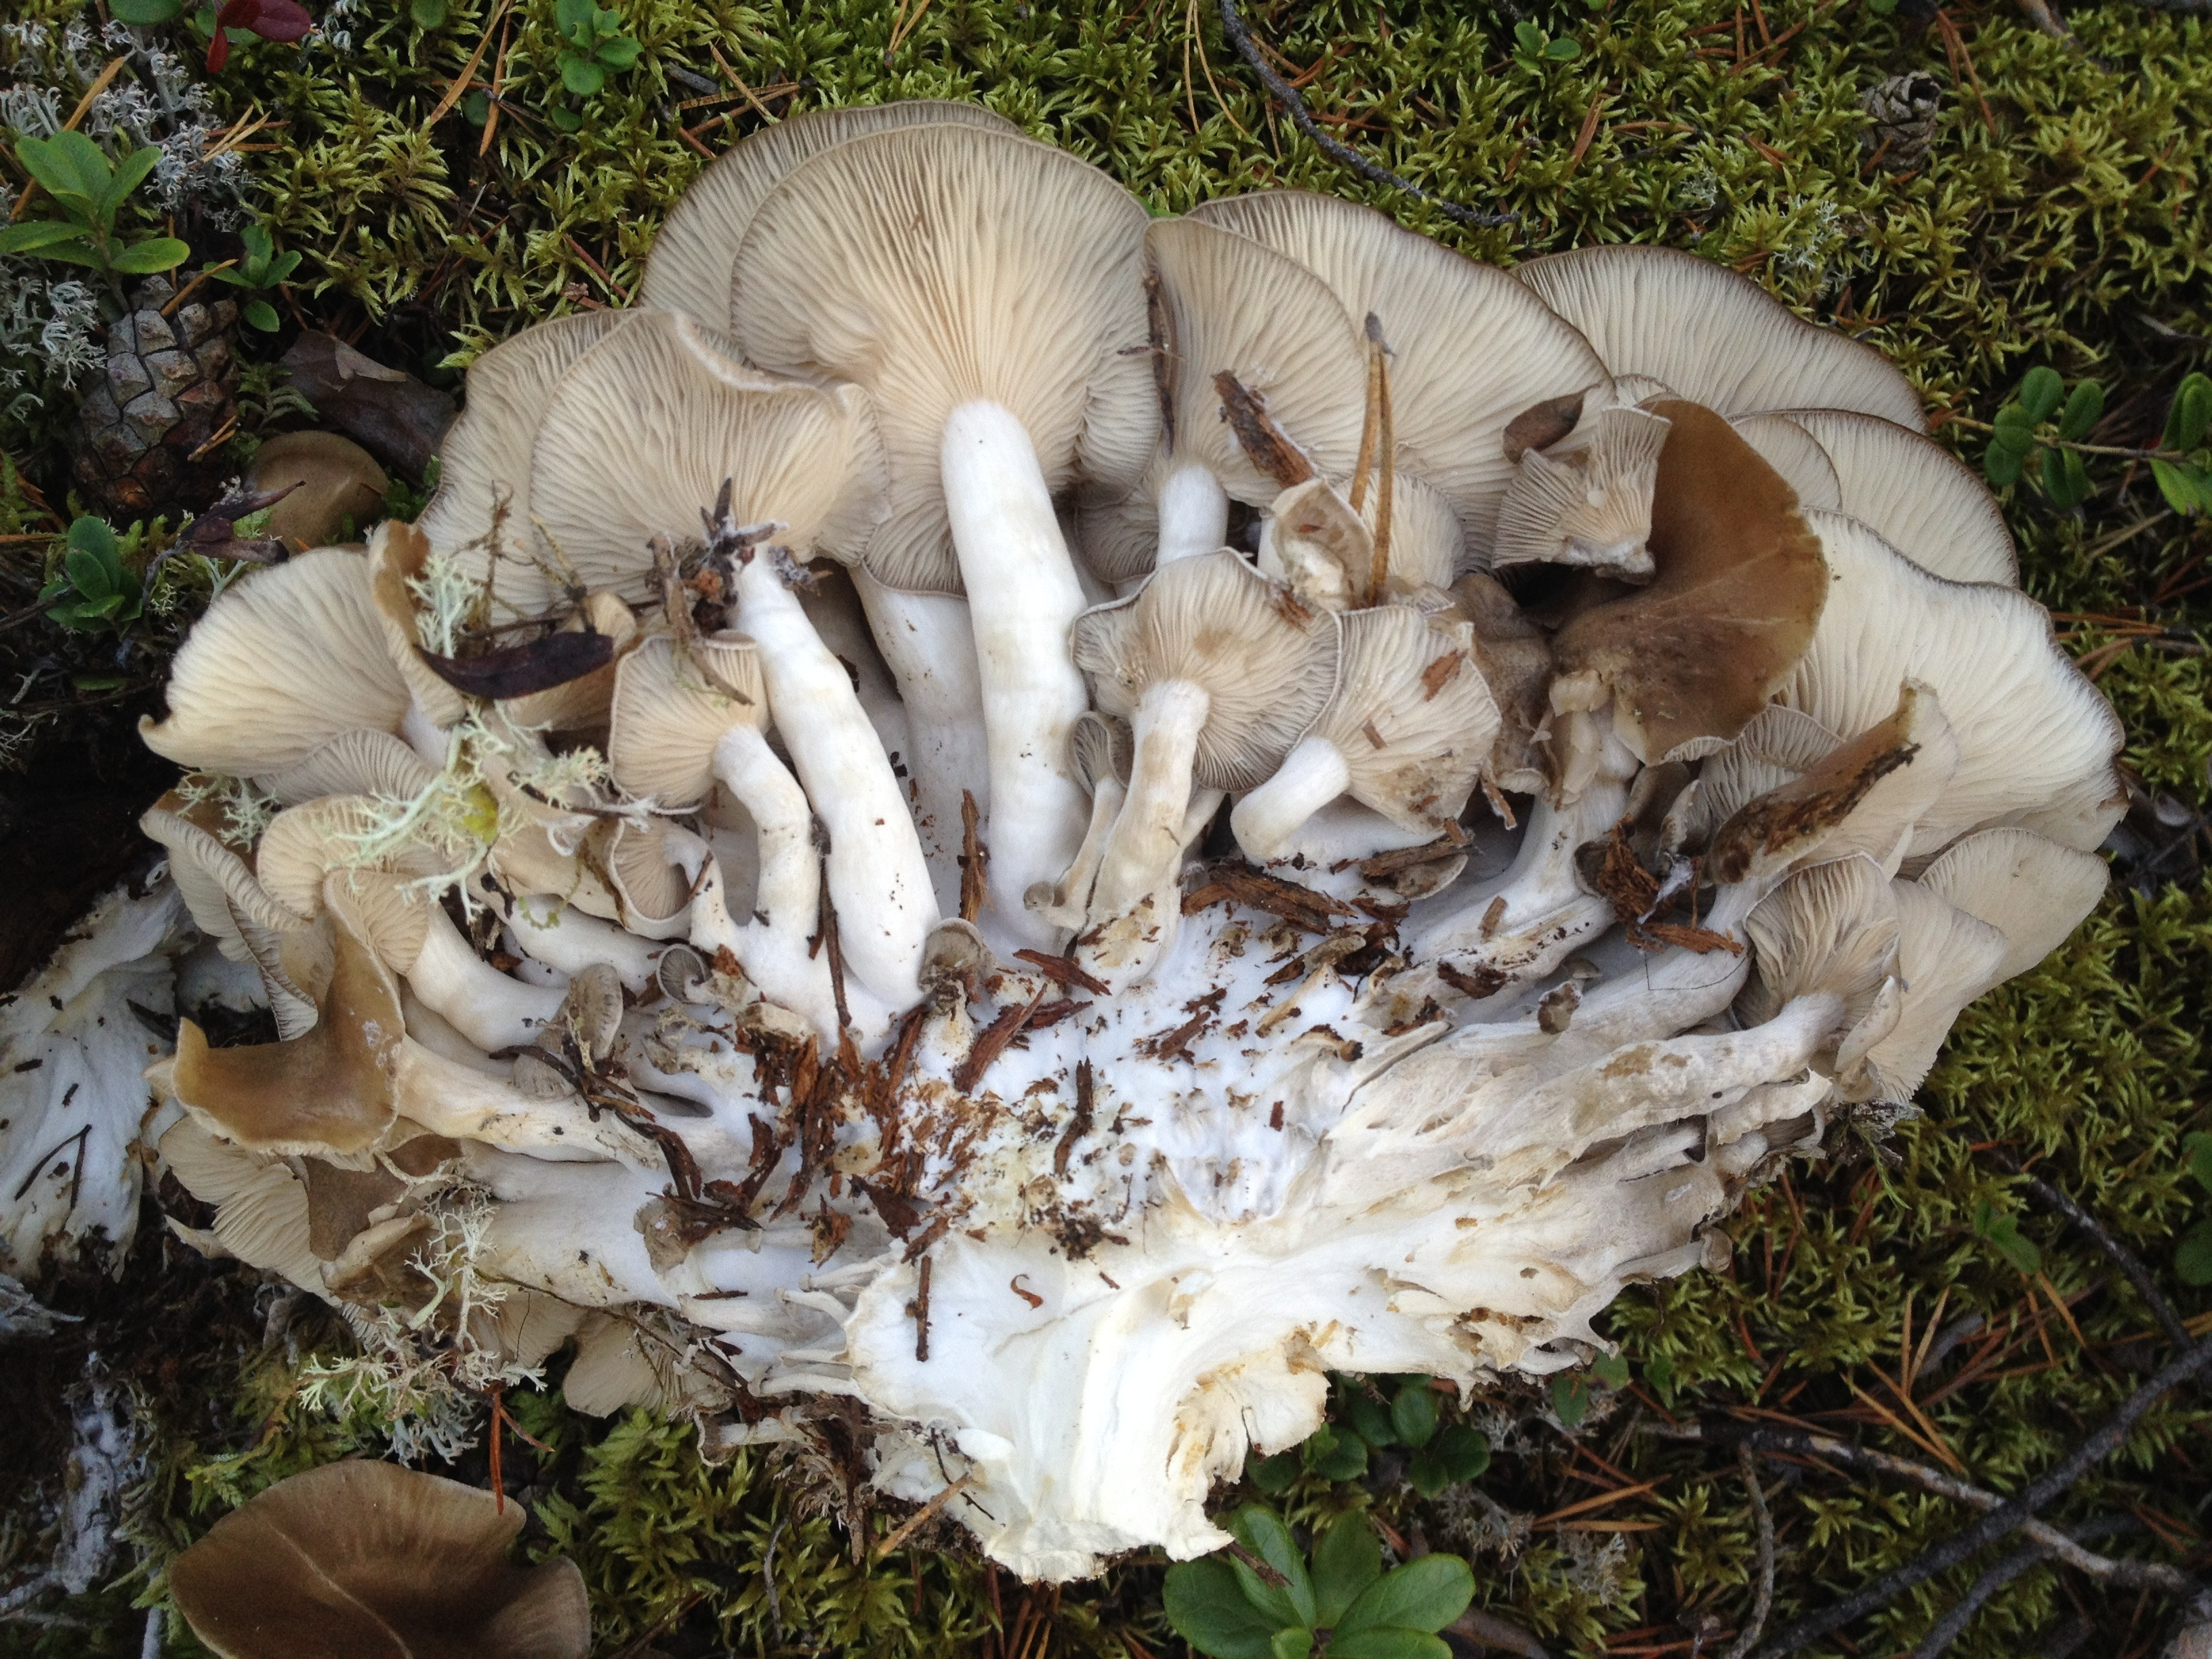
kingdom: Fungi
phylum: Basidiomycota
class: Agaricomycetes
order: Agaricales
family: Lyophyllaceae
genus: Lyophyllum
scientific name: Lyophyllum decastes
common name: Clustered domecap
